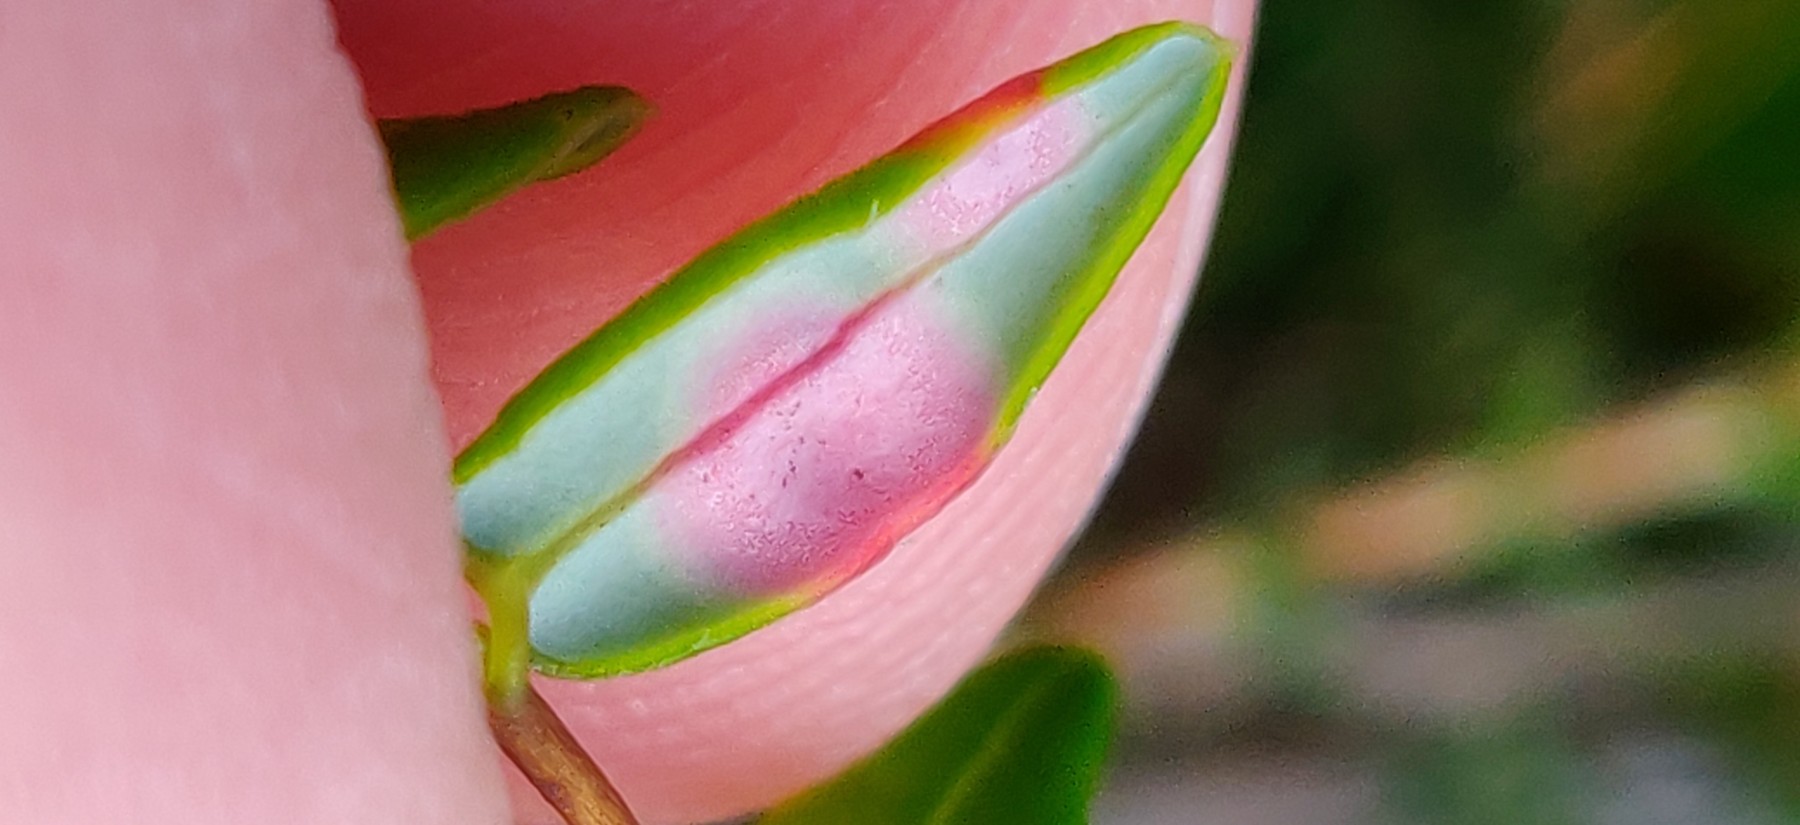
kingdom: Fungi
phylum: Basidiomycota
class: Exobasidiomycetes
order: Exobasidiales
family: Exobasidiaceae
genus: Exobasidium
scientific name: Exobasidium rostrupii
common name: tranebærblad-bøllesvamp
